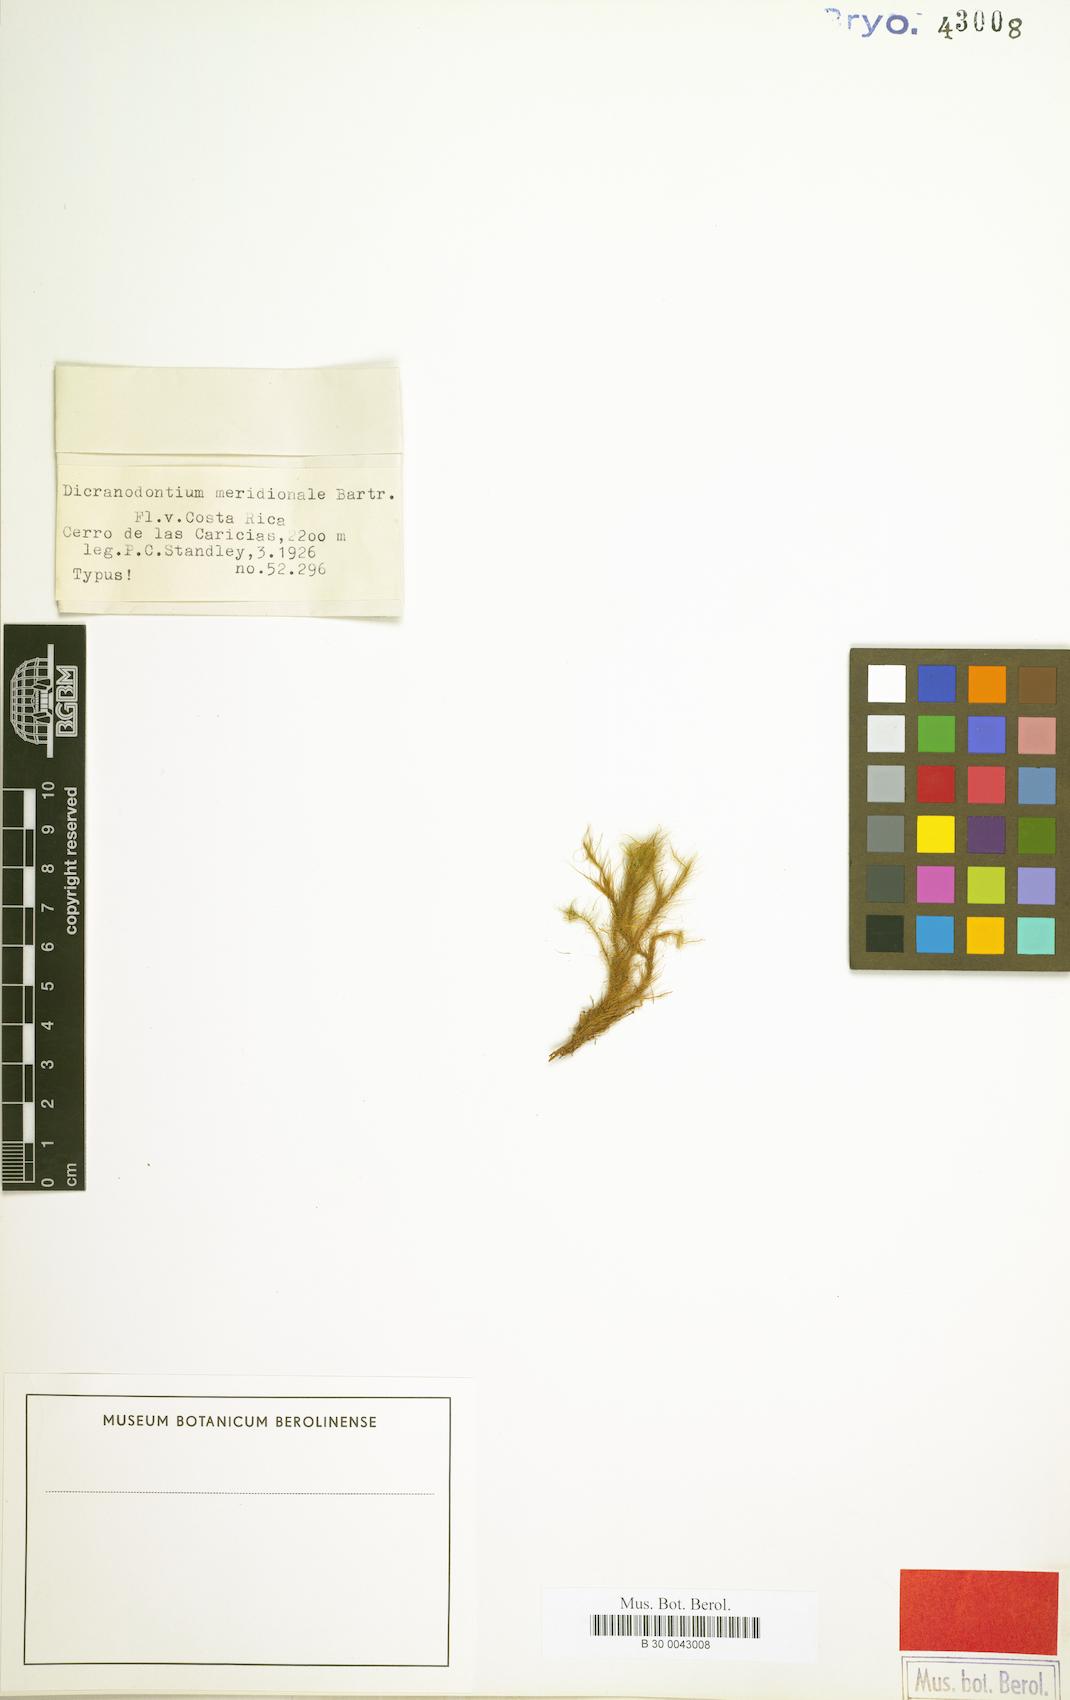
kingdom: Plantae
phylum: Bryophyta
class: Bryopsida
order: Dicranales
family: Leucobryaceae
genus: Dicranodontium
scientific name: Dicranodontium pulchroalare
